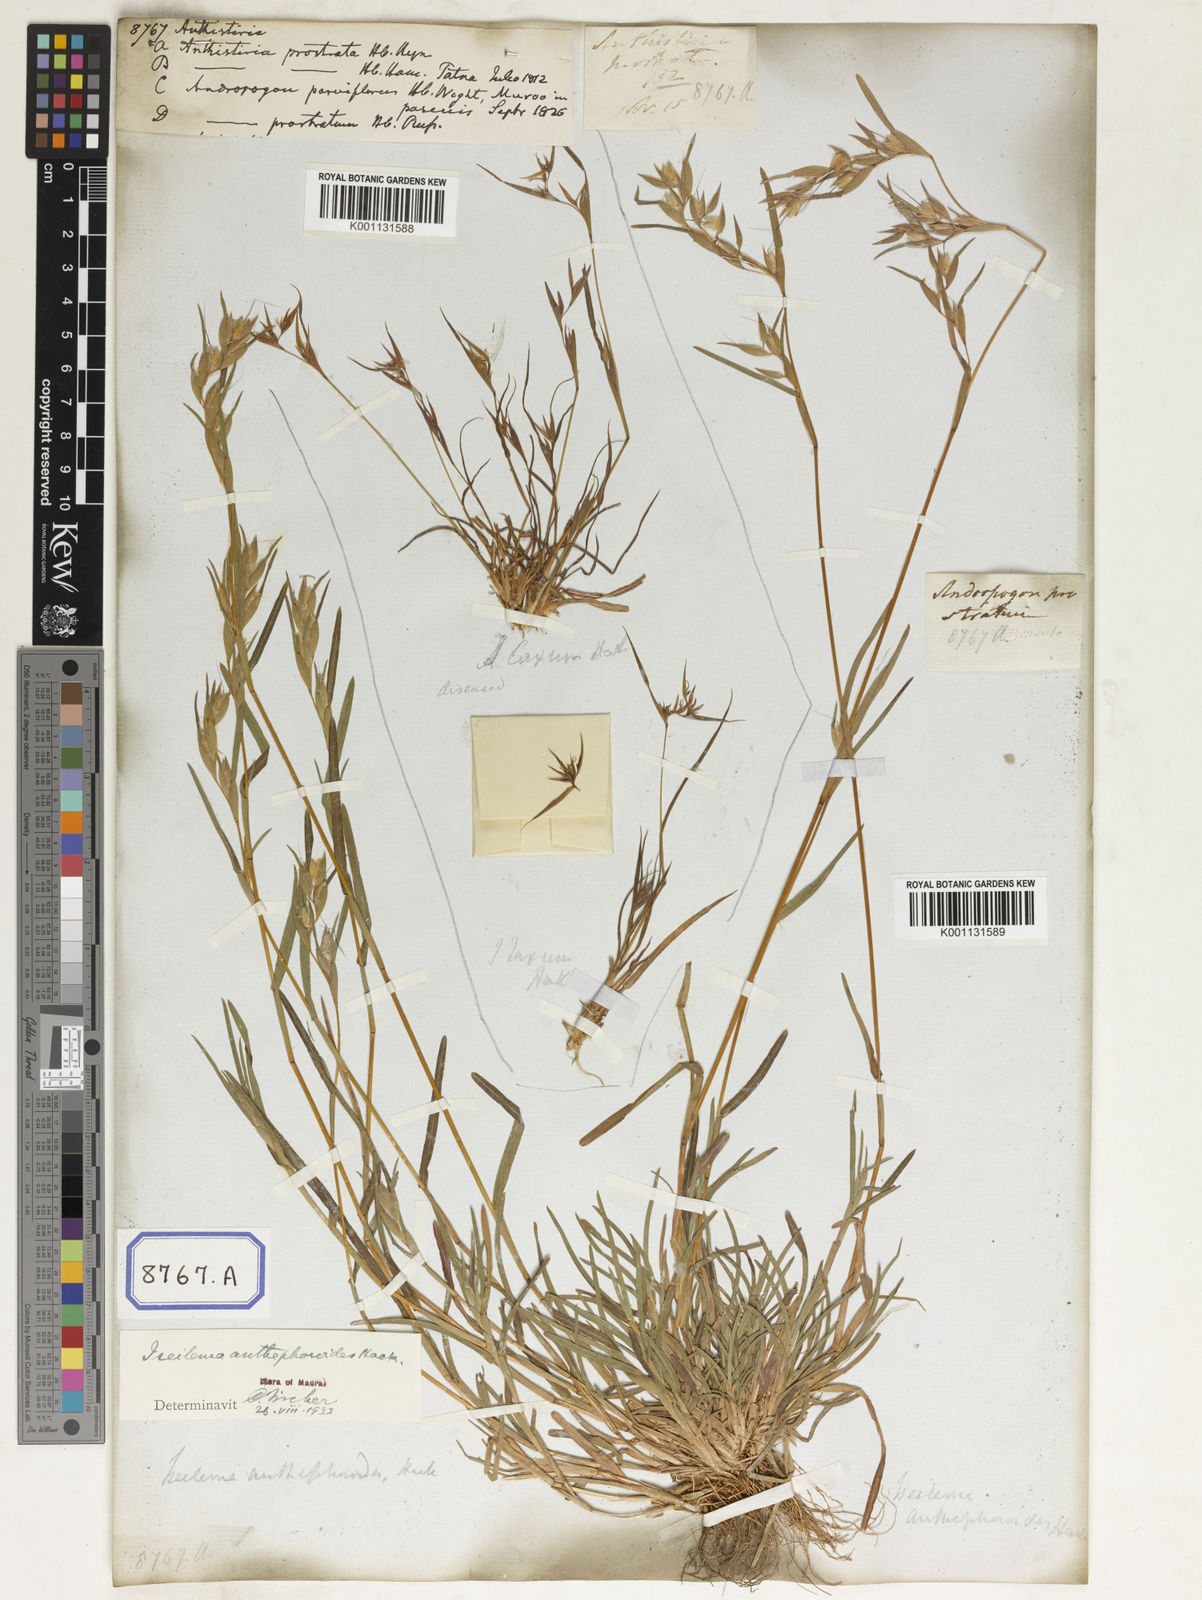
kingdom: Plantae
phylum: Tracheophyta
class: Liliopsida
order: Poales
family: Poaceae
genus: Themeda
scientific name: Themeda
